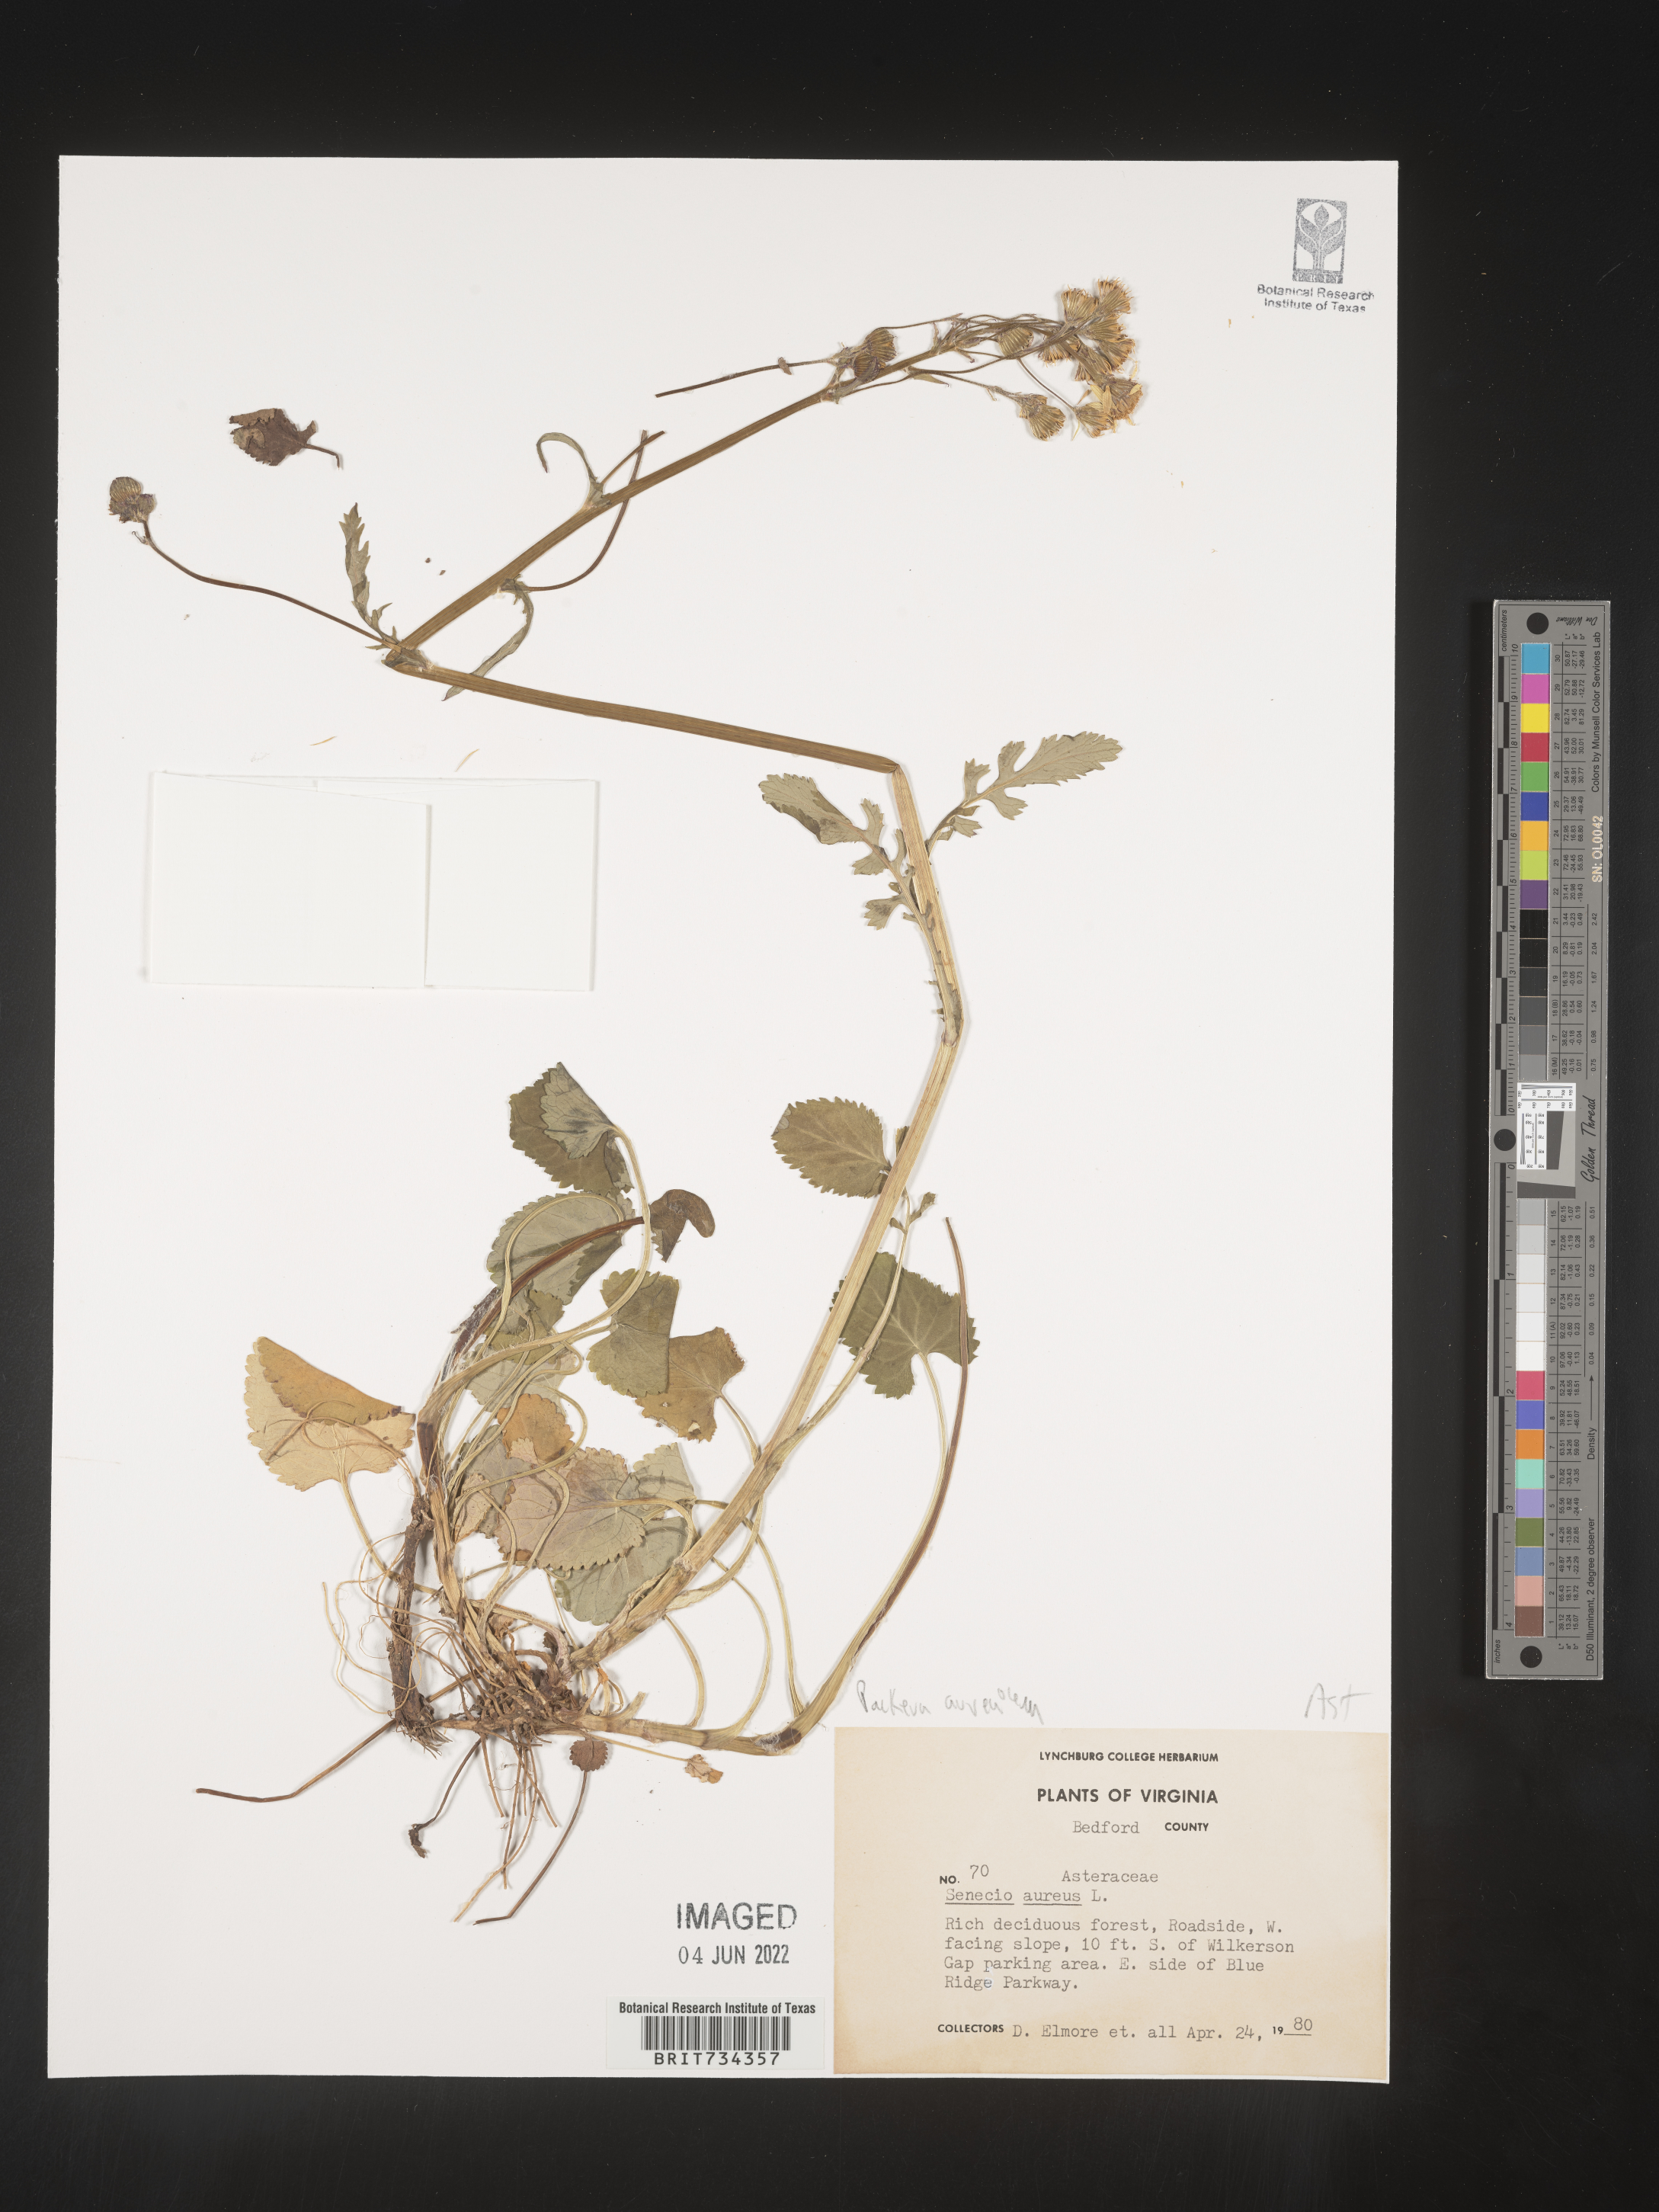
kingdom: Plantae
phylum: Tracheophyta
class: Magnoliopsida
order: Asterales
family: Asteraceae
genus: Packera
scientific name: Packera aurea
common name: Golden groundsel
